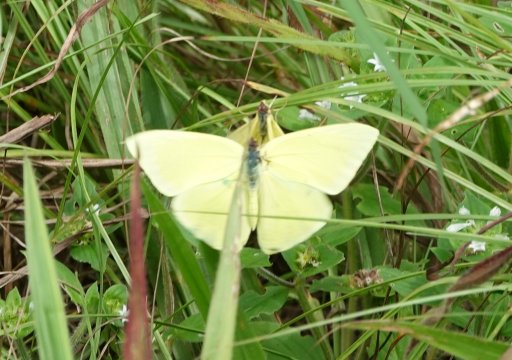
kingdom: Animalia
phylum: Arthropoda
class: Insecta
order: Lepidoptera
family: Pieridae
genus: Phoebis
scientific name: Phoebis sennae
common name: Cloudless Sulphur
